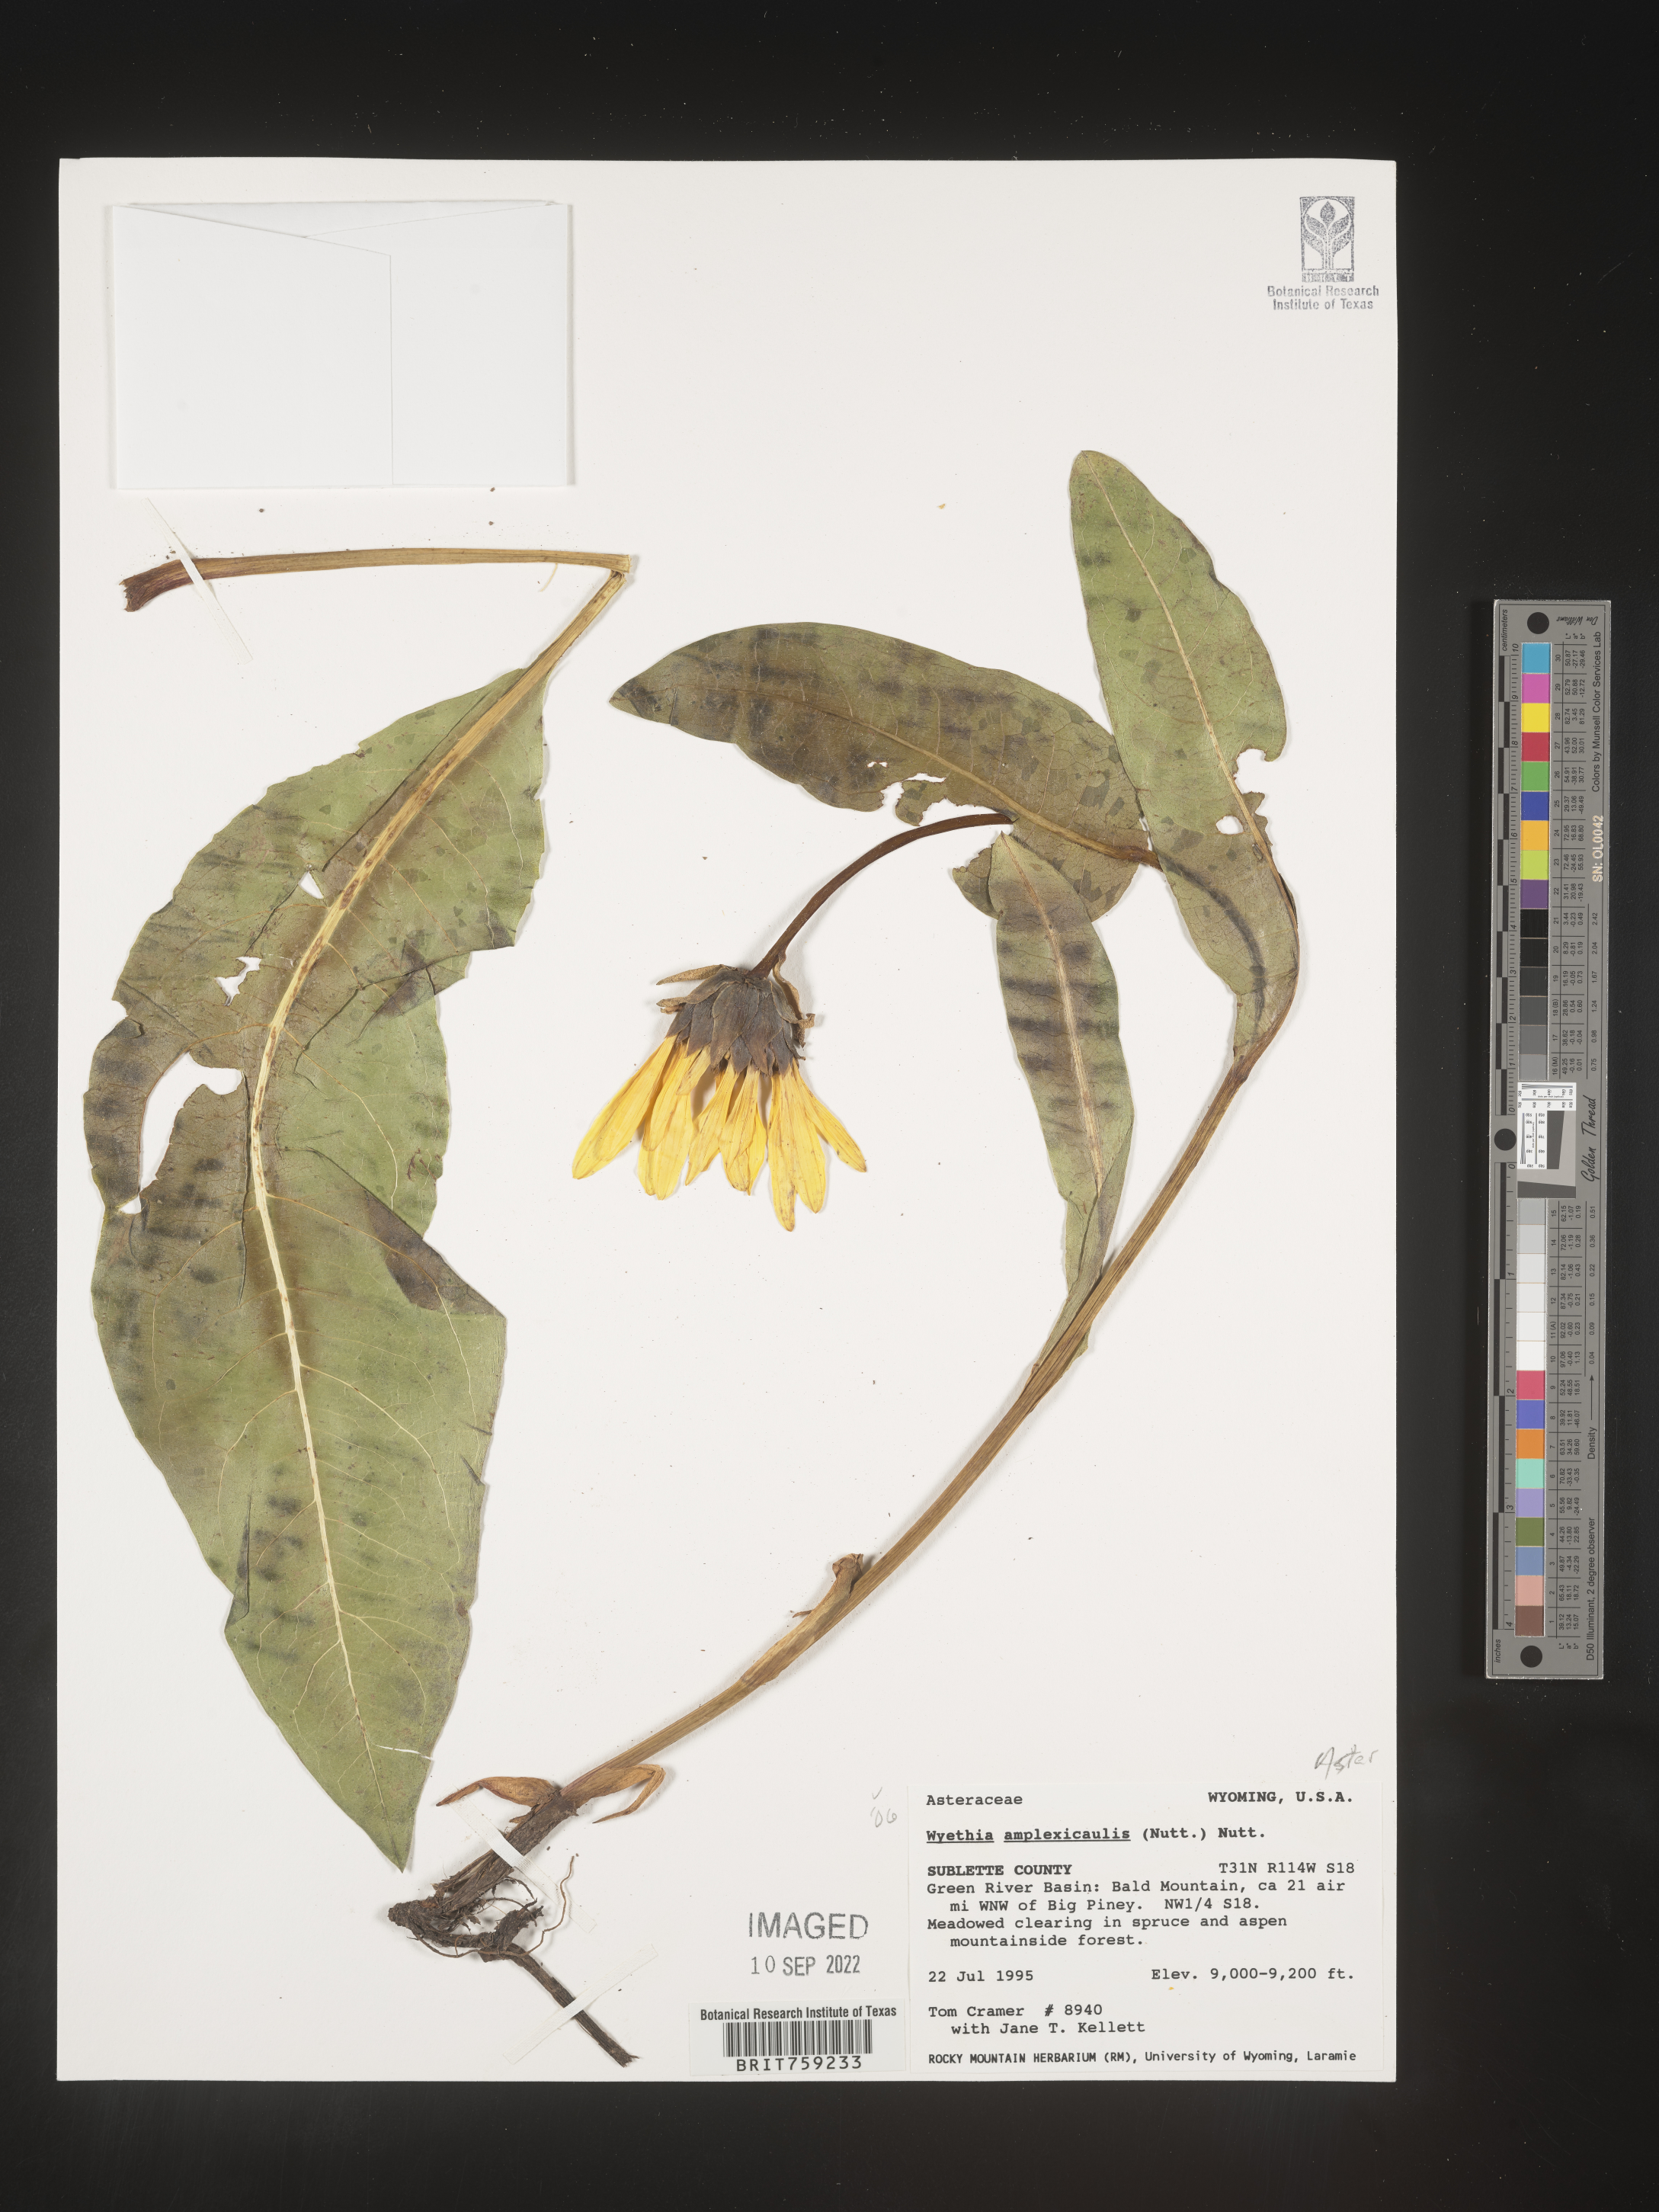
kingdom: Plantae
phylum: Tracheophyta
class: Magnoliopsida
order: Asterales
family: Asteraceae
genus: Wyethia
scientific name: Wyethia amplexicaulis
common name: Northern mule's-ears
